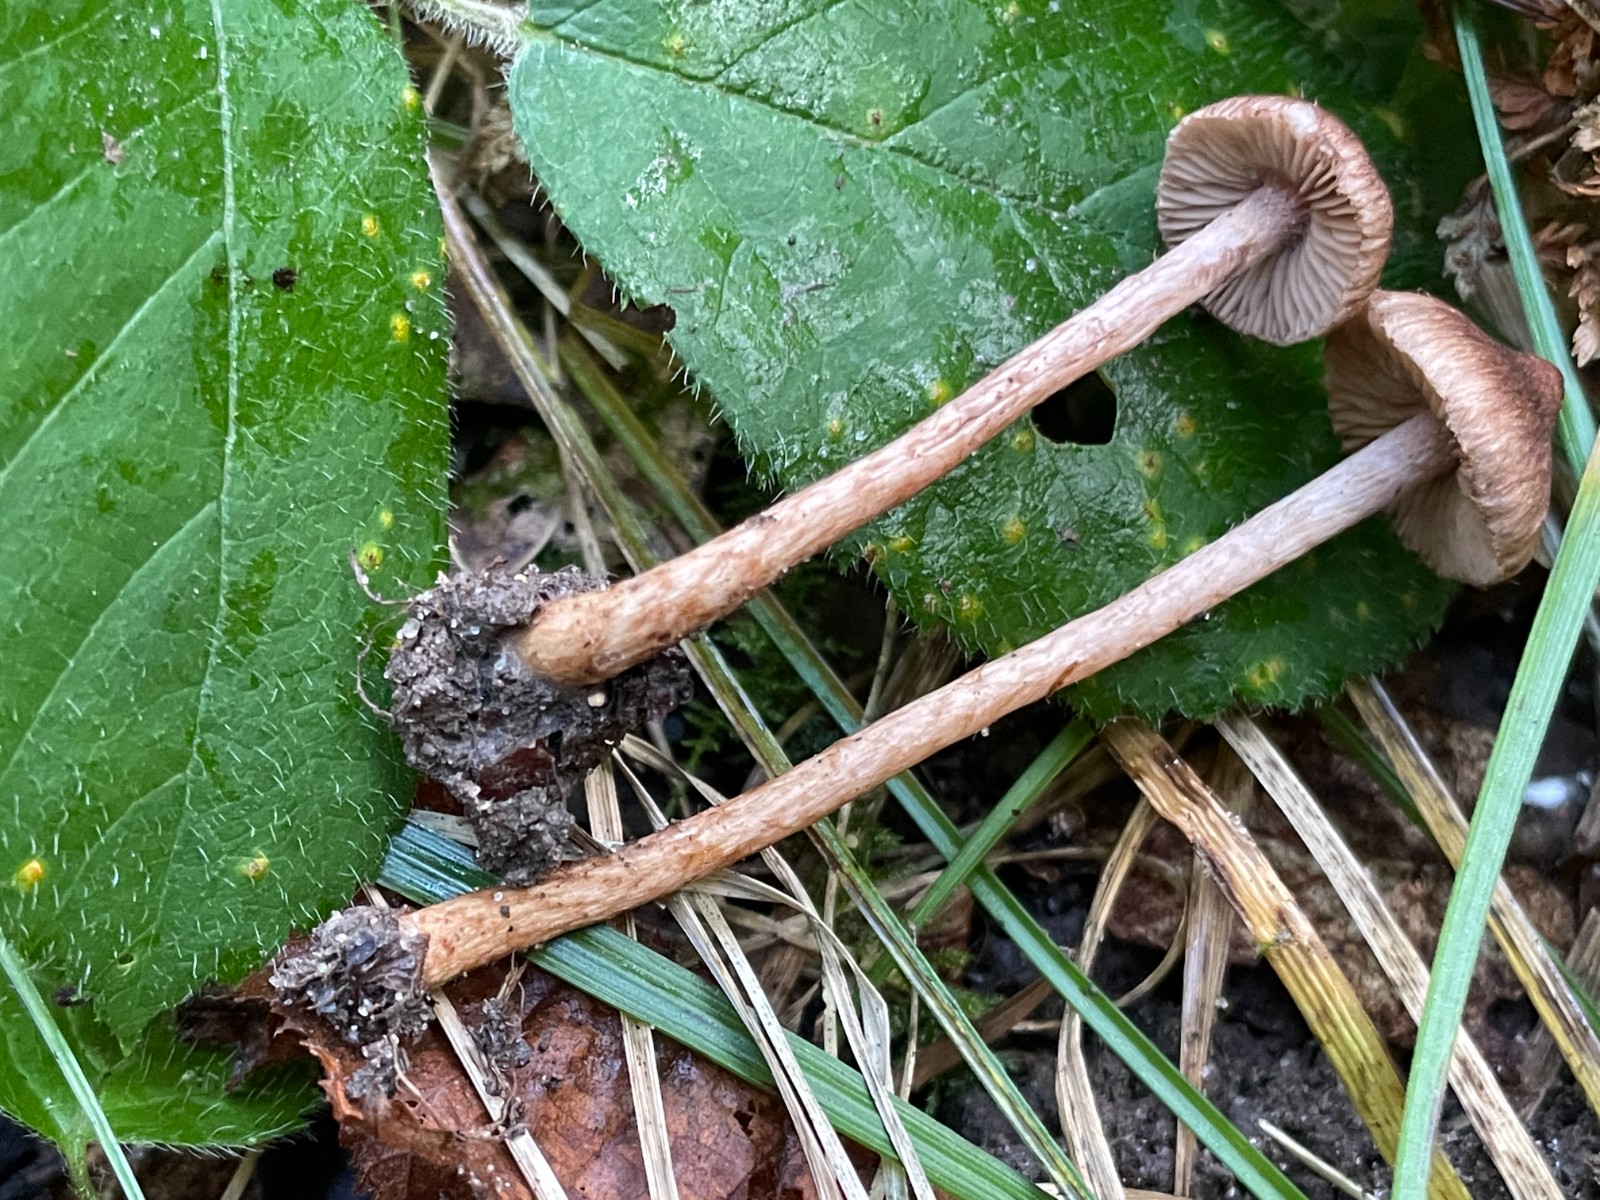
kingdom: Fungi
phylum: Basidiomycota
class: Agaricomycetes
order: Agaricales
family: Inocybaceae
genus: Inocybe
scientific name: Inocybe cincinnata
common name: lillabladet trævlhat
